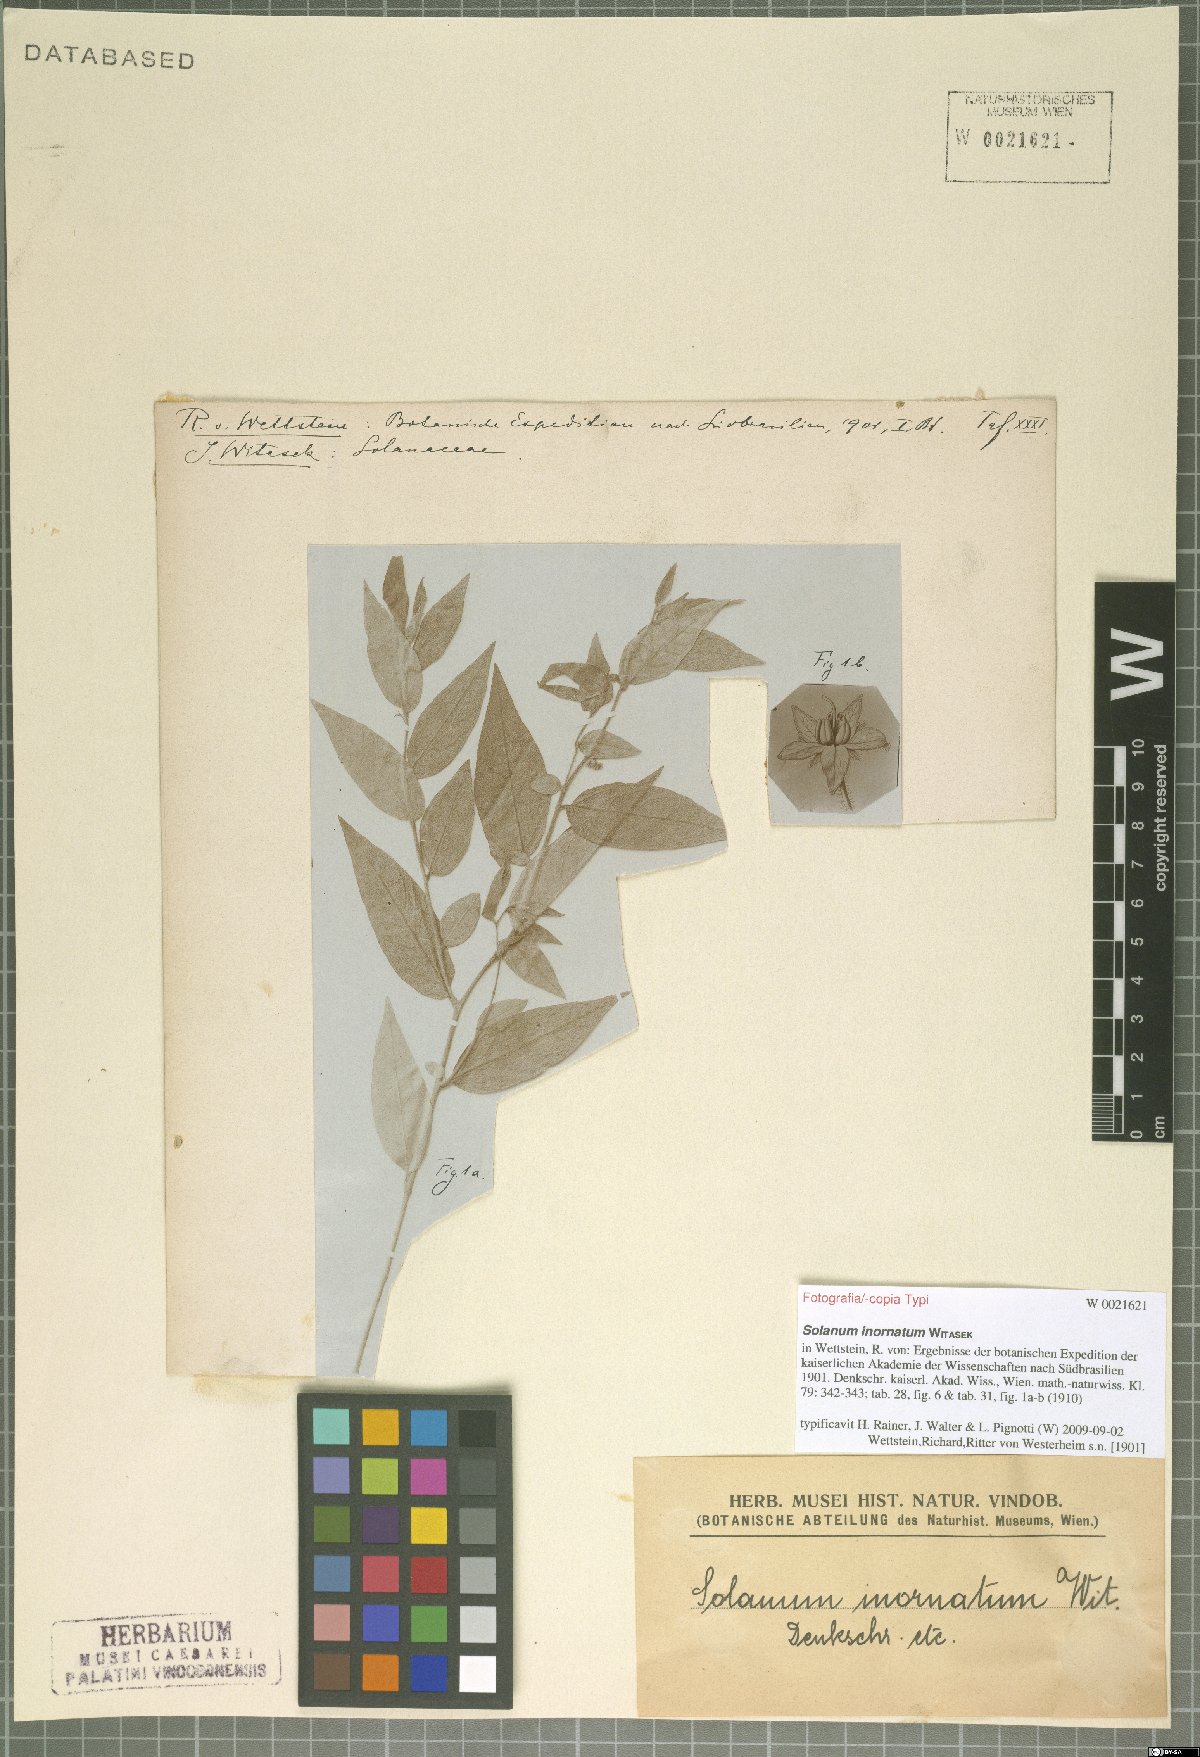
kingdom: Plantae
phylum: Tracheophyta
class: Magnoliopsida
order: Solanales
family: Solanaceae
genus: Solanum
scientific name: Solanum inornatum
